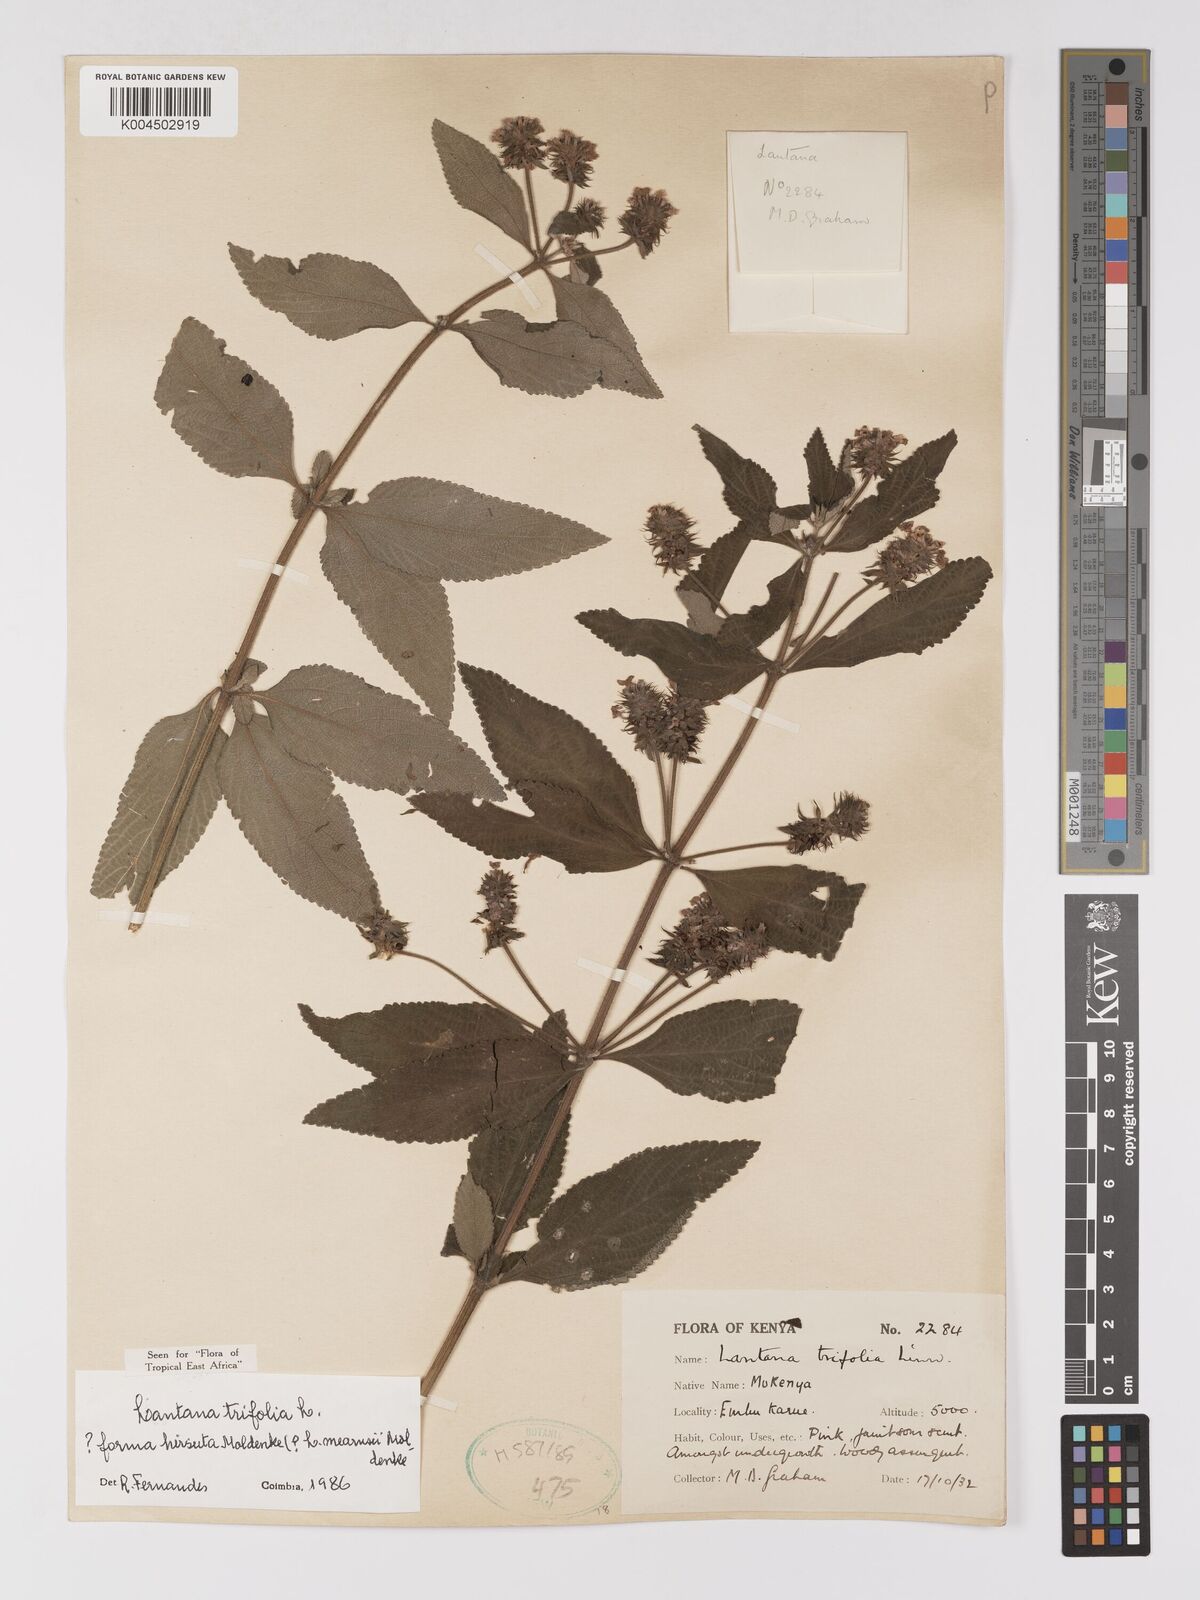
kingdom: Plantae
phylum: Tracheophyta
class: Magnoliopsida
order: Lamiales
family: Verbenaceae
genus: Lantana
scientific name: Lantana trifolia
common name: Sweet-sage
